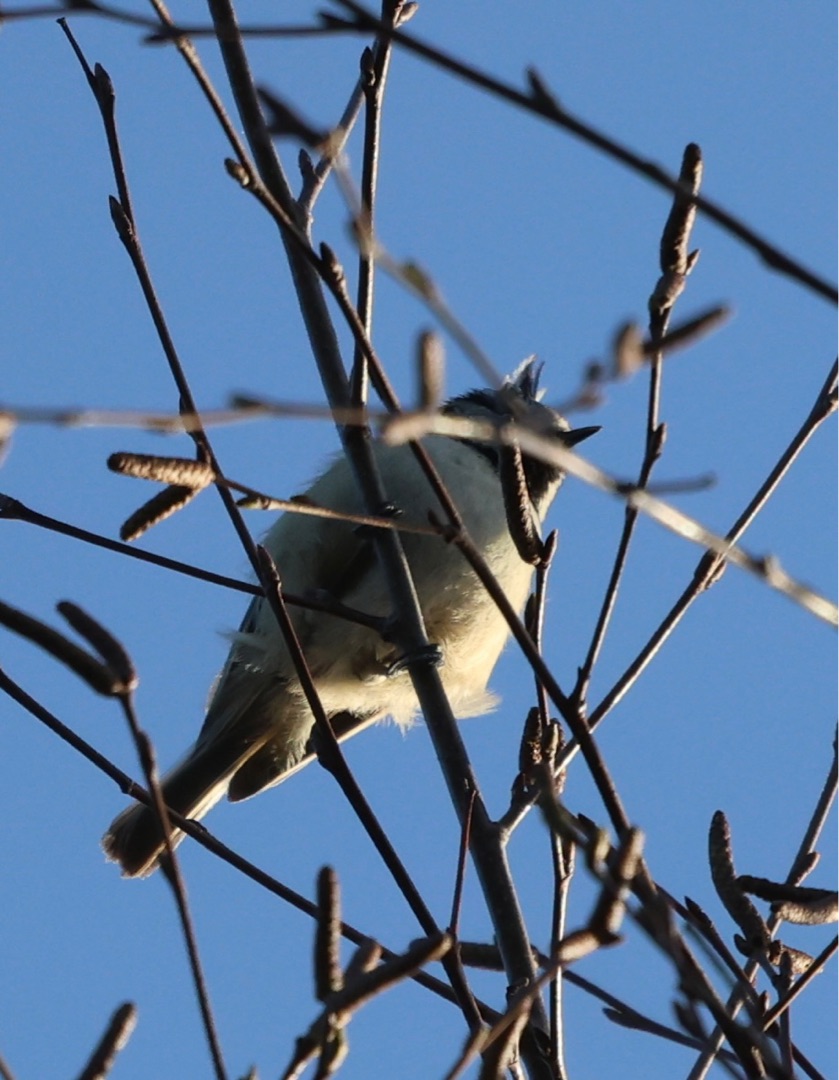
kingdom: Animalia
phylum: Chordata
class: Aves
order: Passeriformes
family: Paridae
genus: Lophophanes
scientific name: Lophophanes cristatus
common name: Topmejse
